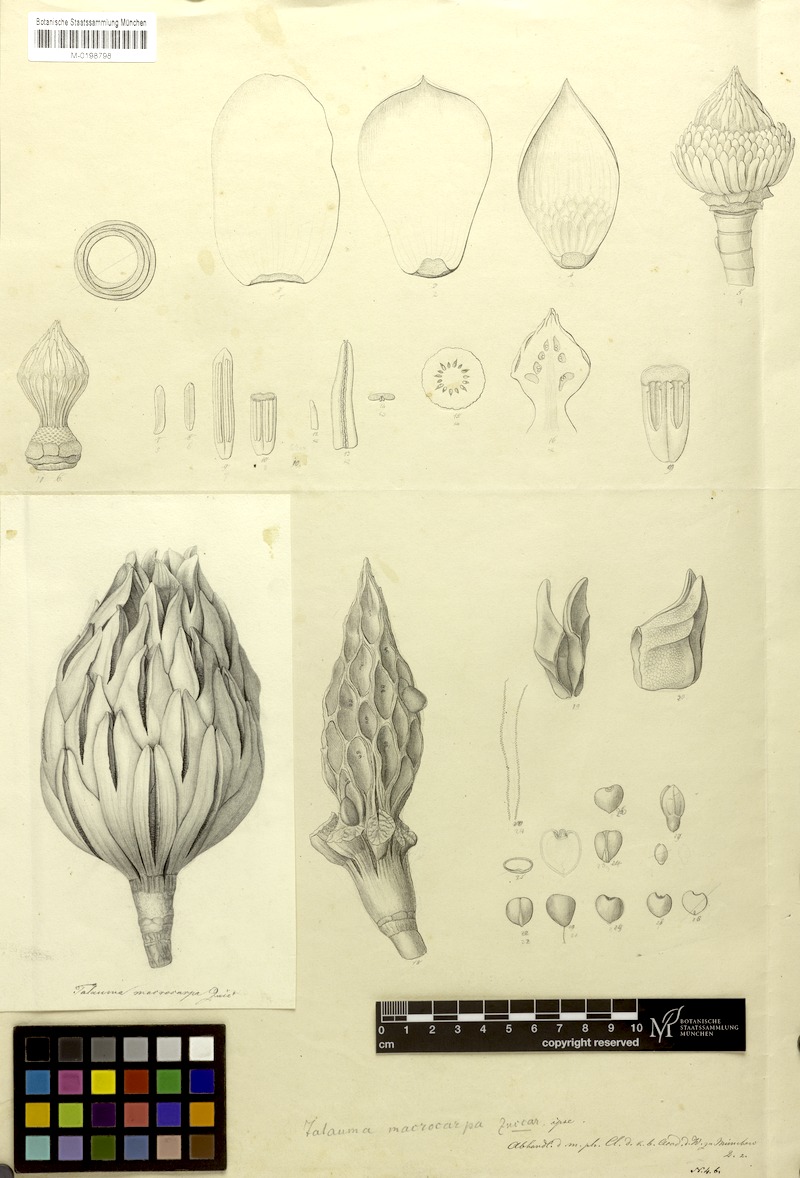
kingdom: Plantae
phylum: Tracheophyta
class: Magnoliopsida
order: Magnoliales
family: Magnoliaceae
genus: Magnolia
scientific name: Magnolia mexicana
